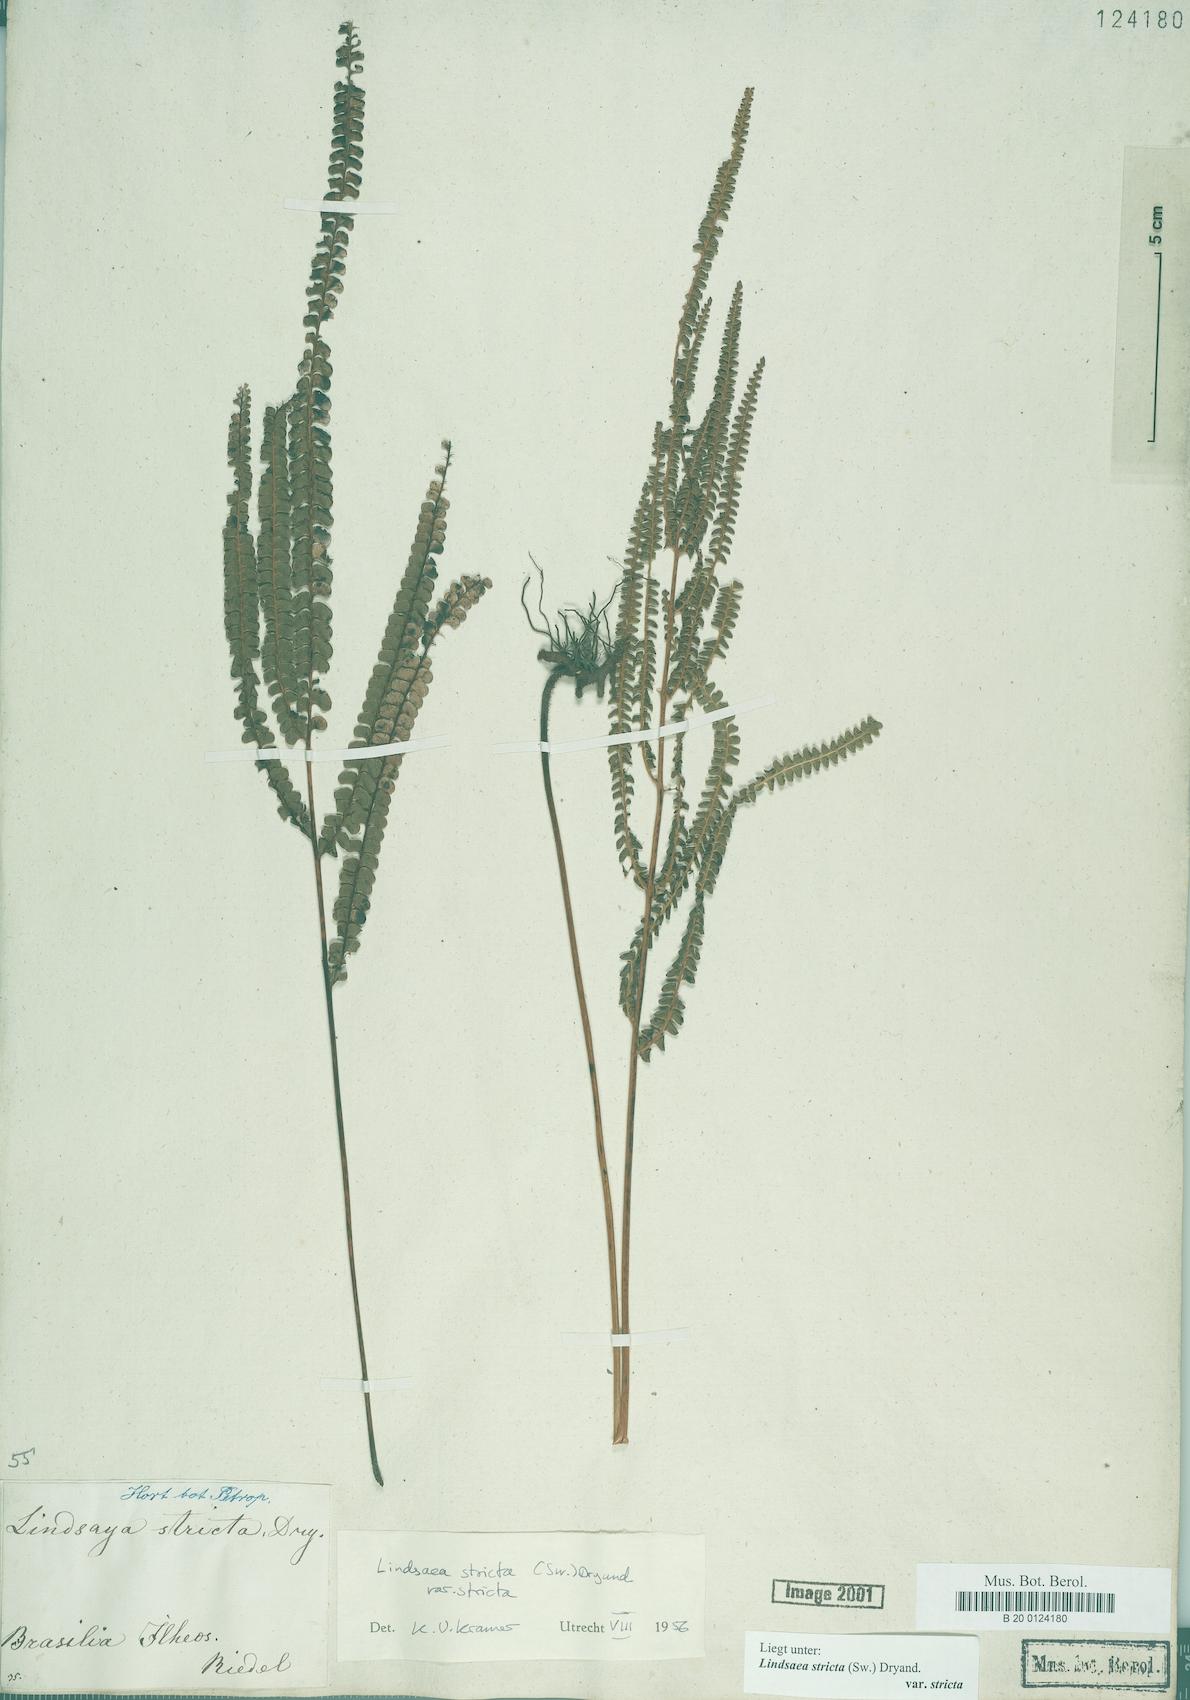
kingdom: Plantae
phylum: Tracheophyta
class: Polypodiopsida
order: Polypodiales
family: Lindsaeaceae
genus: Lindsaea
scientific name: Lindsaea stricta
